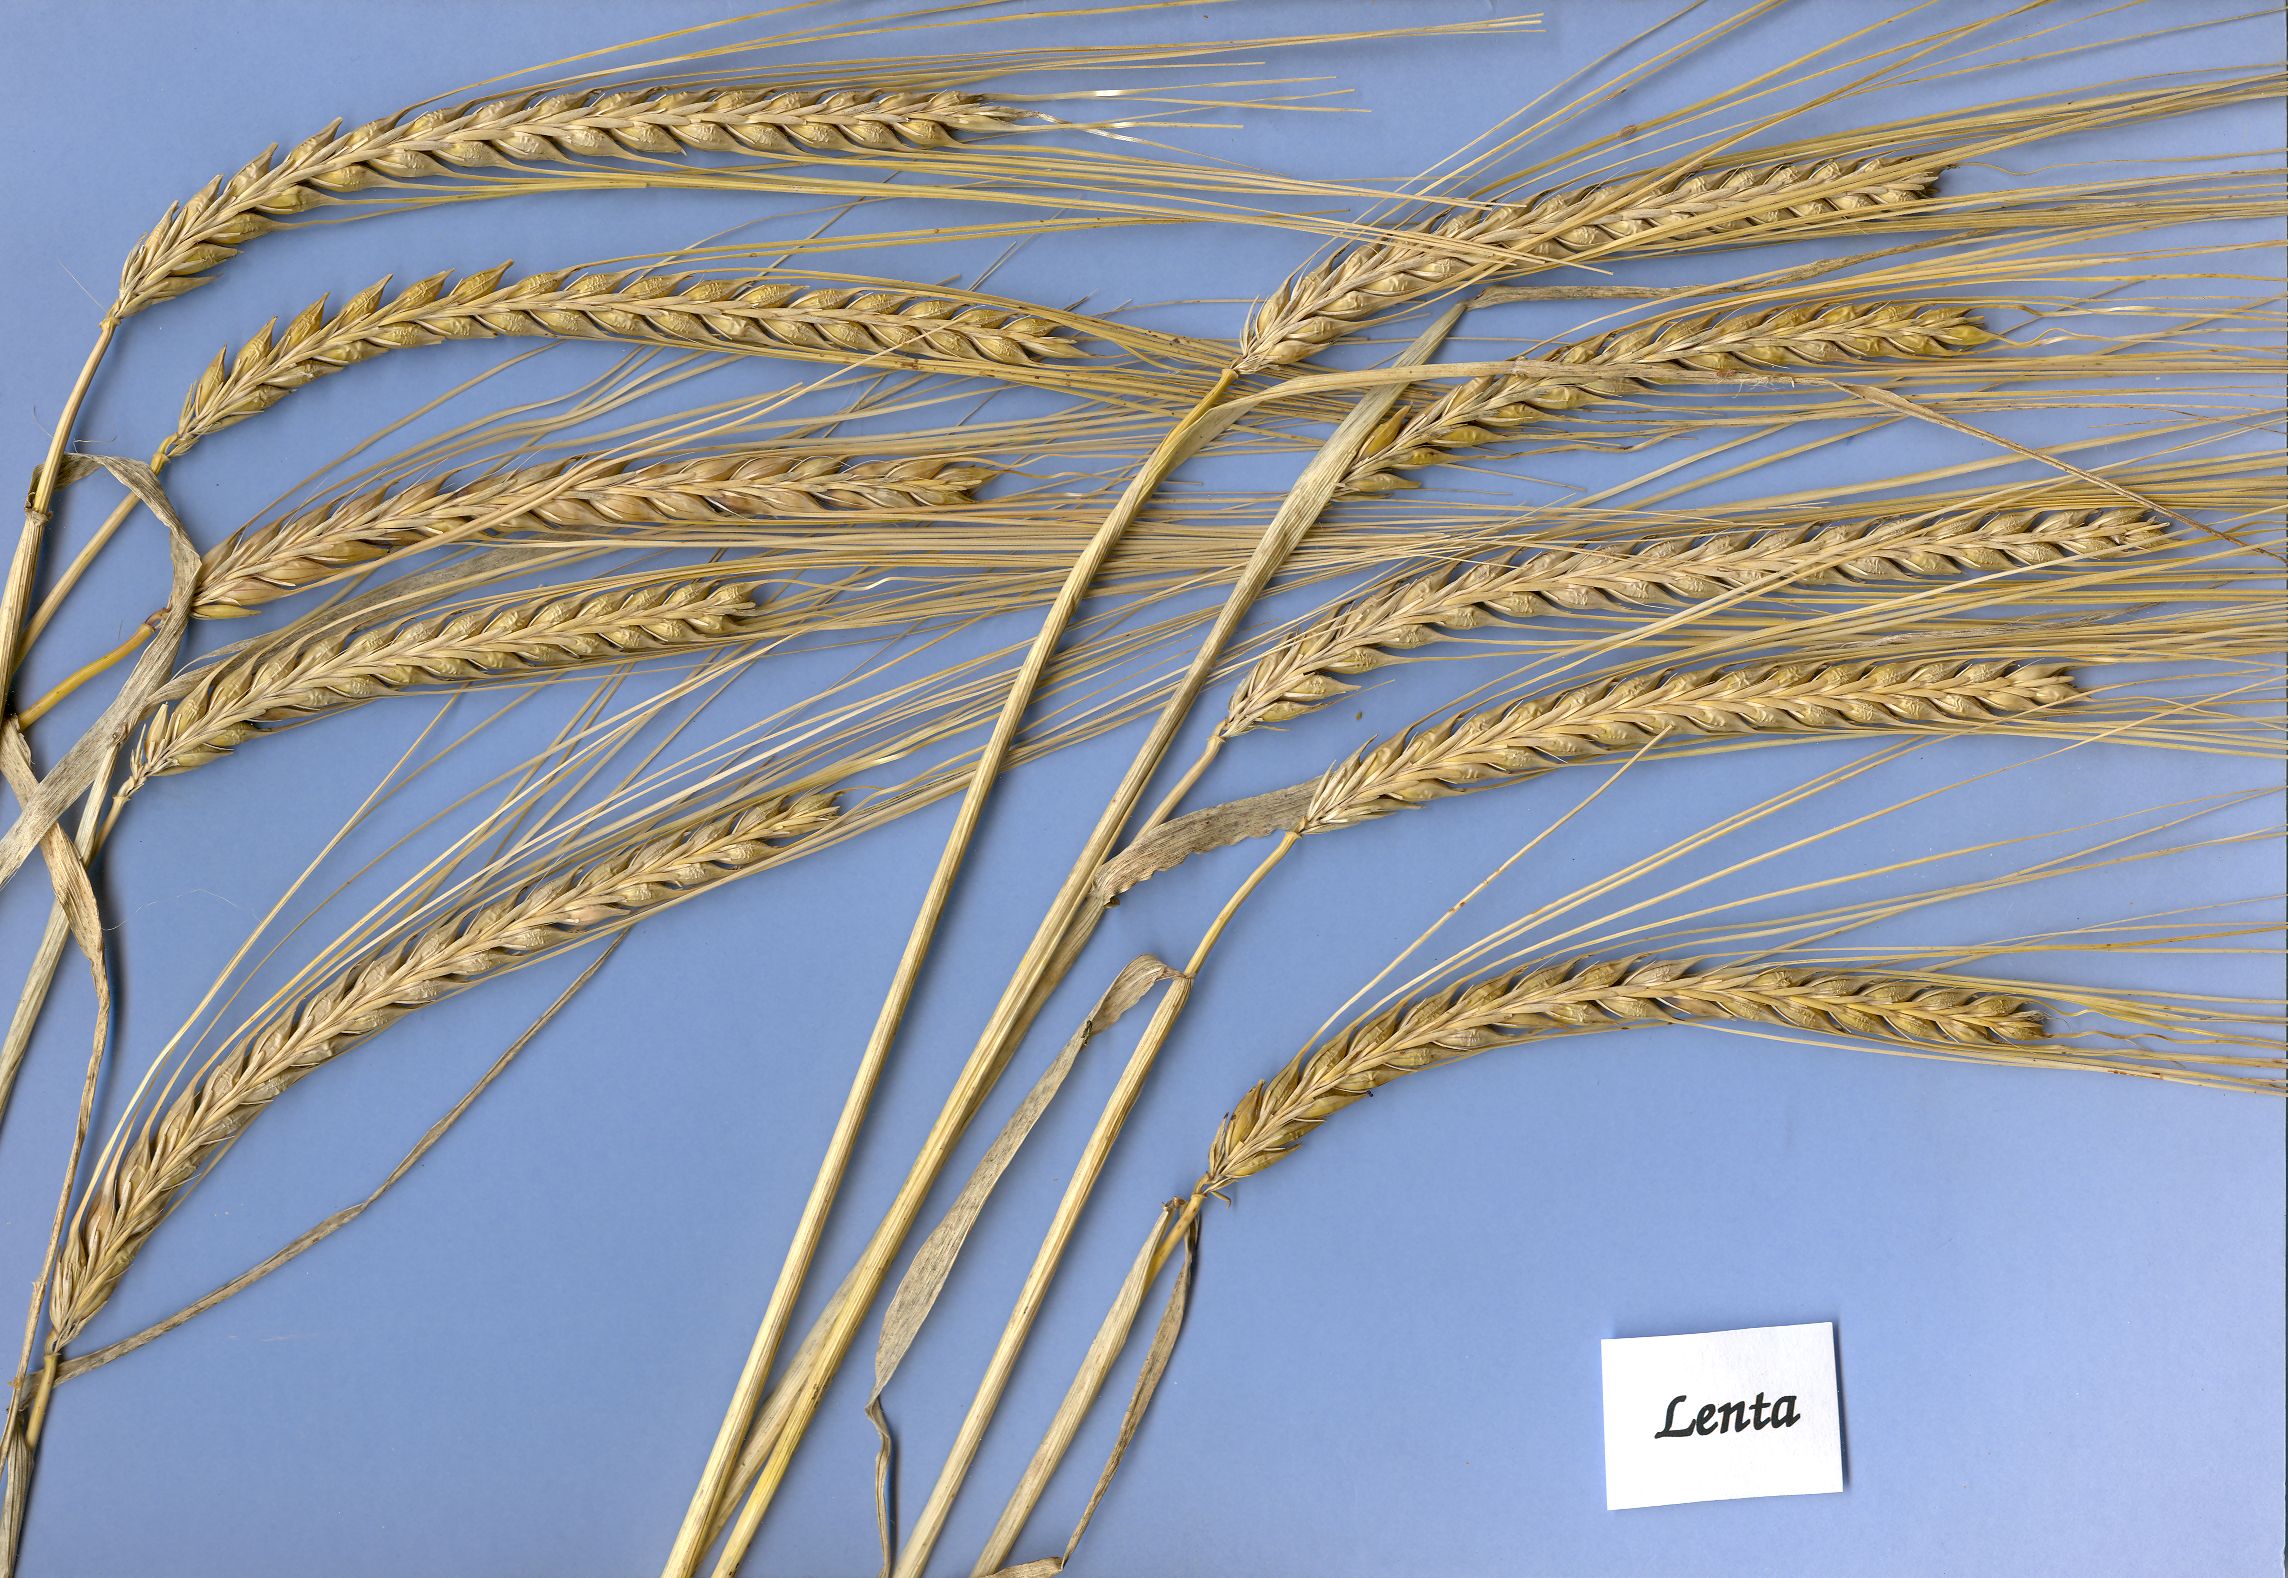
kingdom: Plantae
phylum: Tracheophyta
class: Liliopsida
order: Poales
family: Poaceae
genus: Hordeum
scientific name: Hordeum vulgare
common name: Common barley
